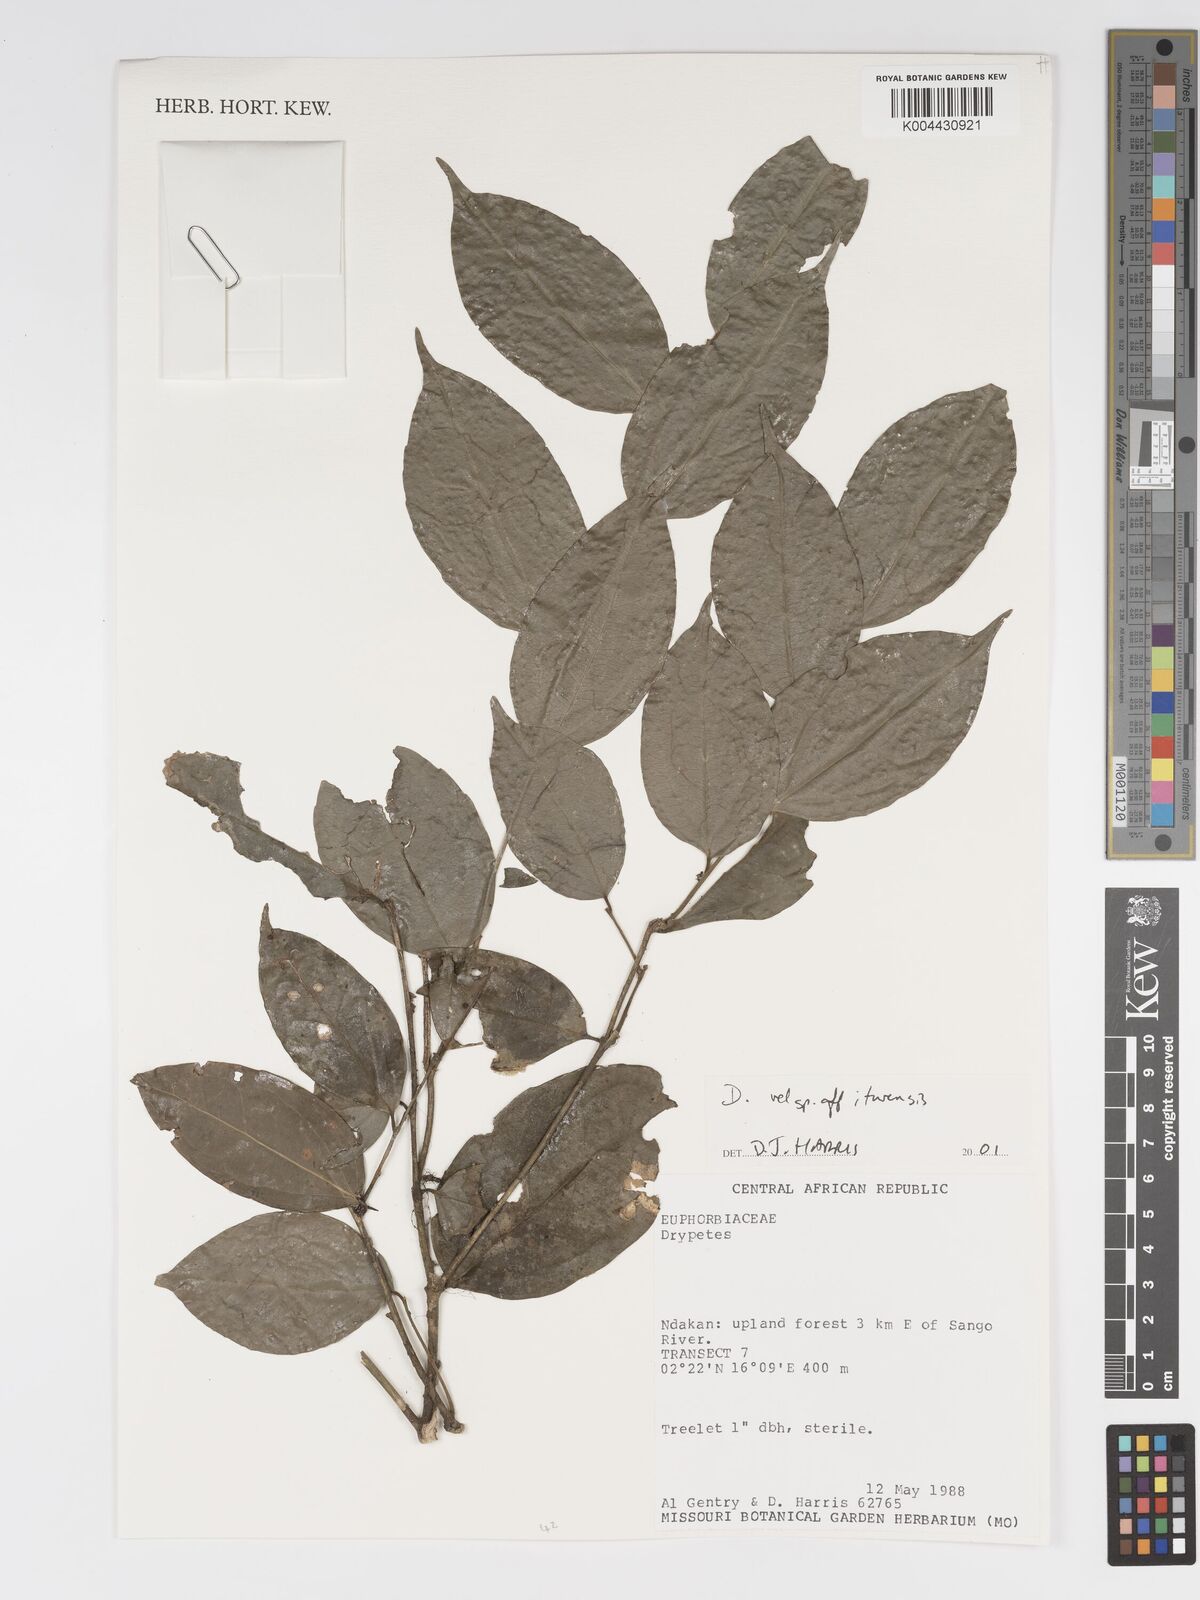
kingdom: Plantae
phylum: Tracheophyta
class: Magnoliopsida
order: Malpighiales
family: Putranjivaceae
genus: Drypetes
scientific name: Drypetes ituriensis
